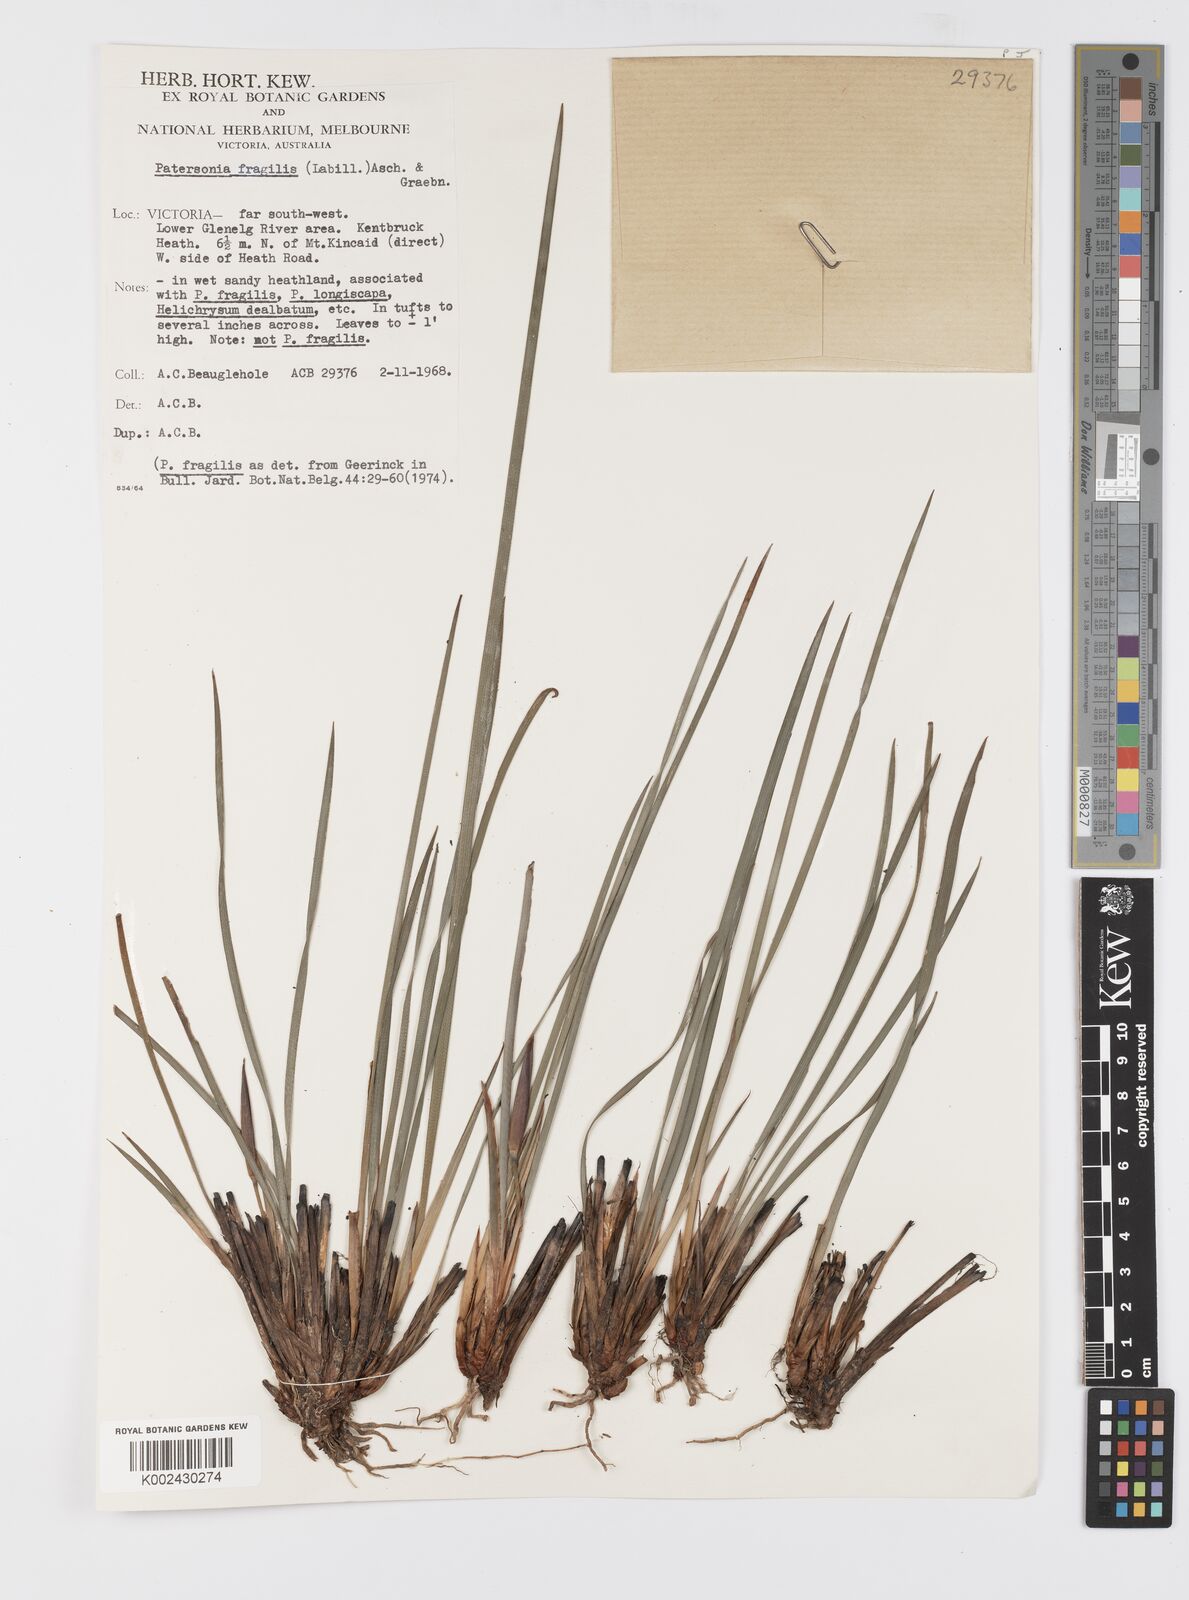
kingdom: Plantae
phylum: Tracheophyta
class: Liliopsida
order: Asparagales
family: Iridaceae
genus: Patersonia
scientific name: Patersonia fragilis
